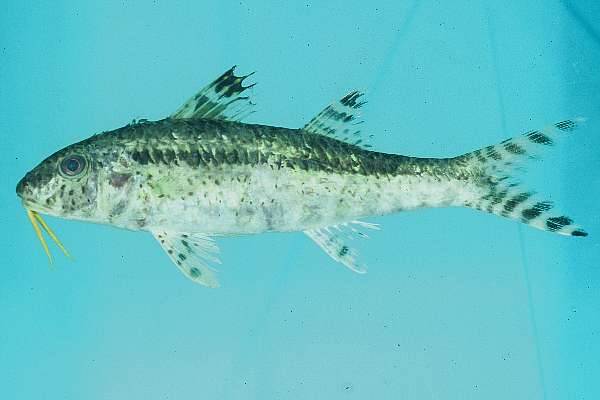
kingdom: Animalia
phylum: Chordata
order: Perciformes
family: Mullidae
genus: Upeneus
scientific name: Upeneus tragula
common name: Freckled goatfish
